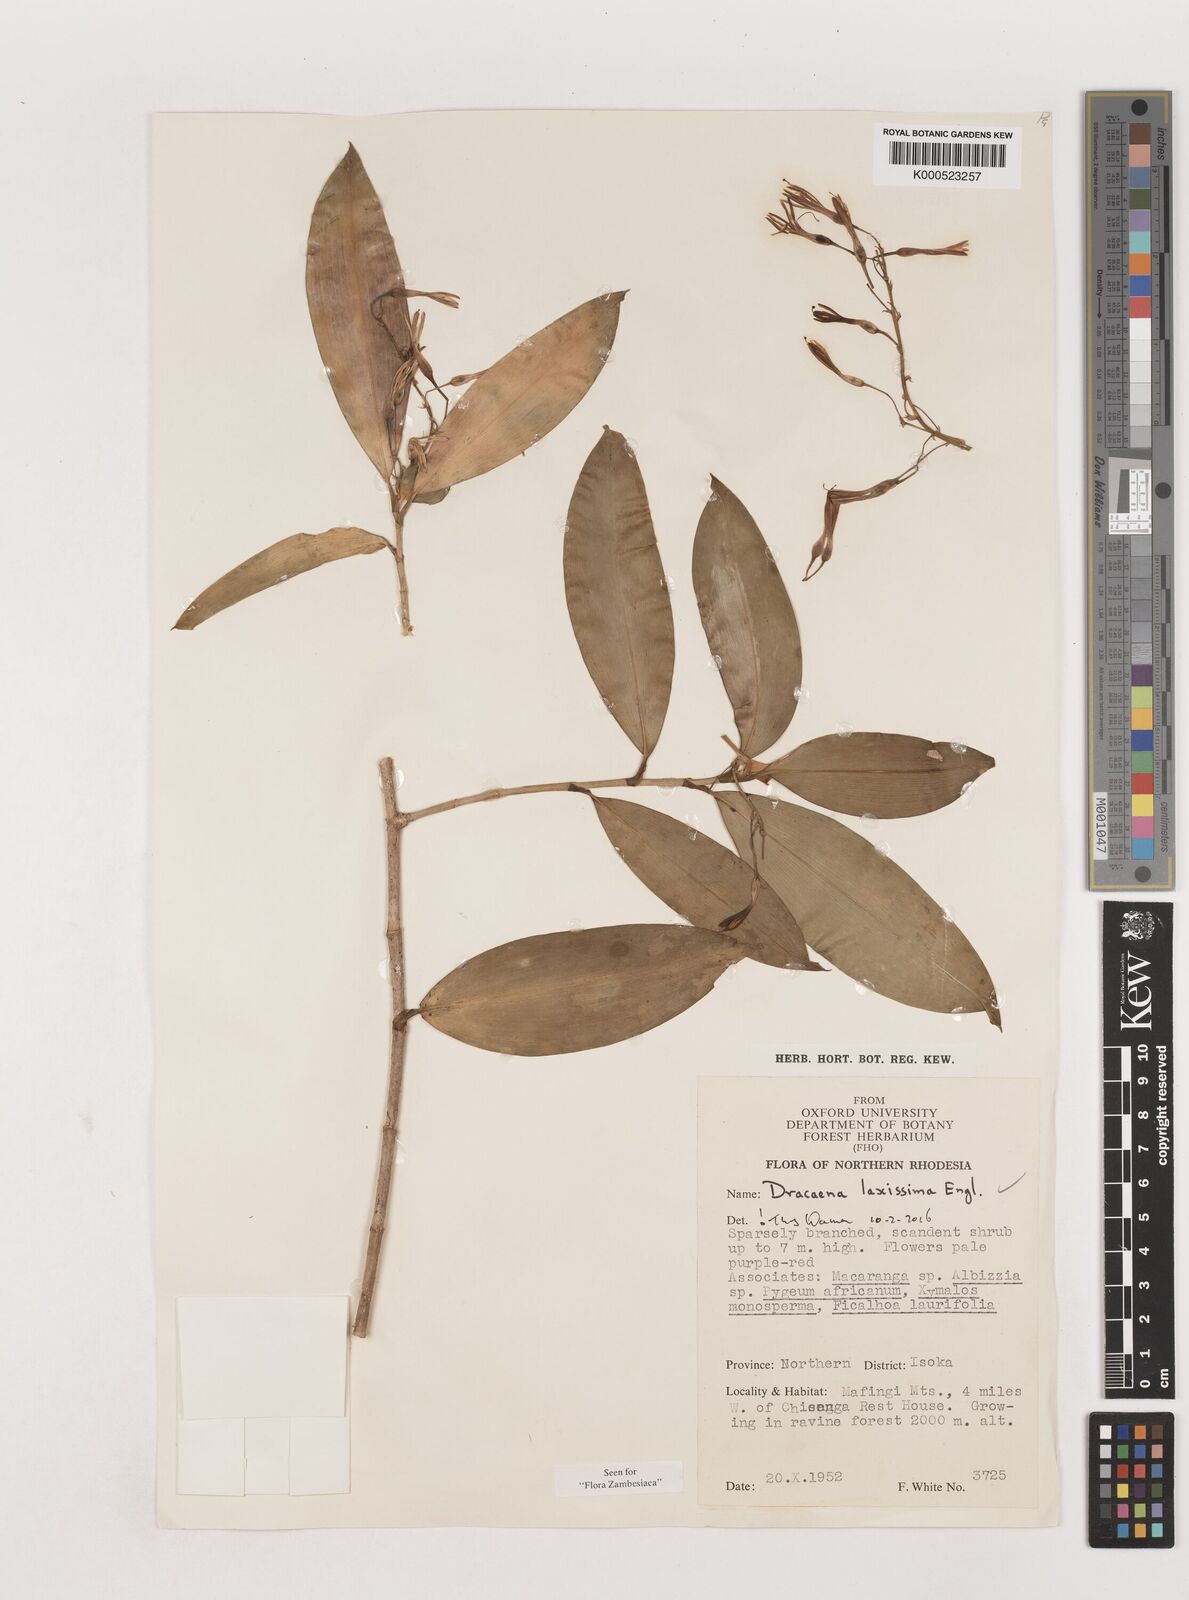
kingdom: Plantae
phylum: Tracheophyta
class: Liliopsida
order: Asparagales
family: Asparagaceae
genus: Dracaena
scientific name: Dracaena laxissima
